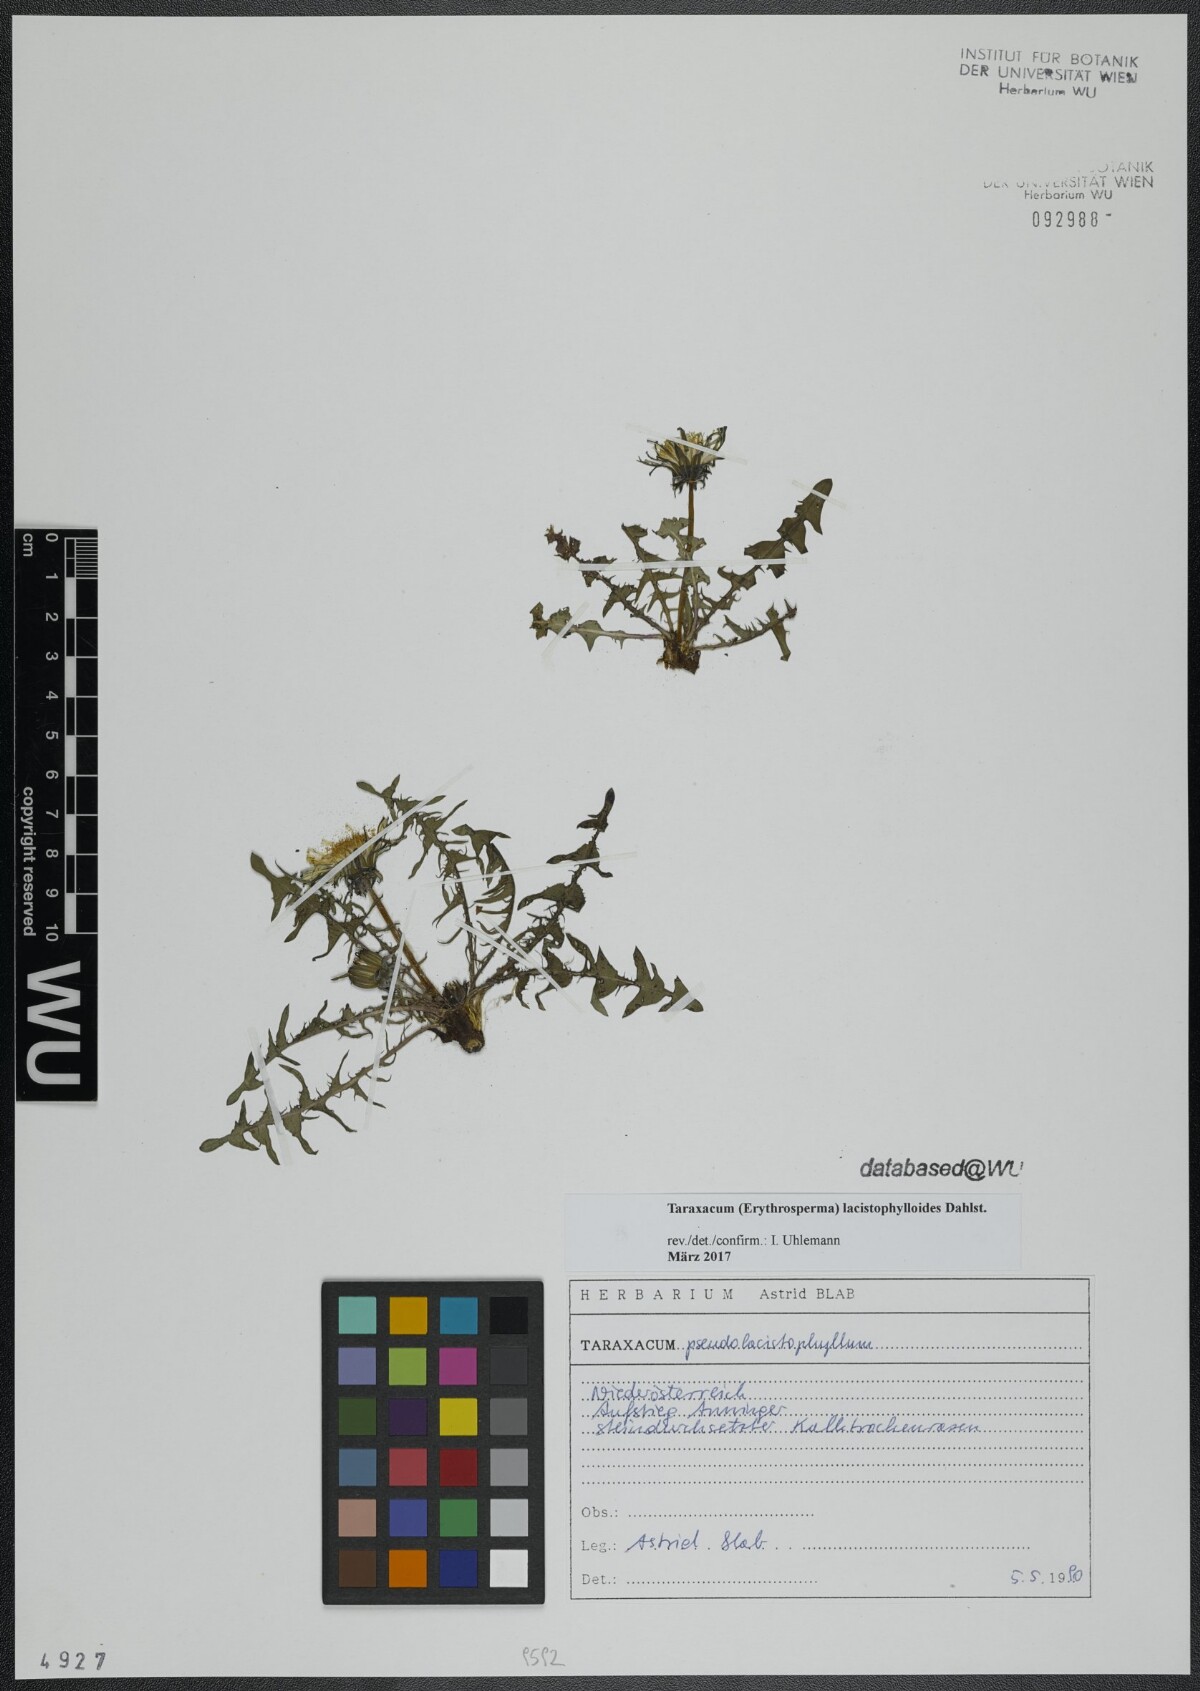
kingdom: Plantae
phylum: Tracheophyta
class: Magnoliopsida
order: Asterales
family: Asteraceae
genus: Taraxacum
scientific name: Taraxacum lacistophylloides
